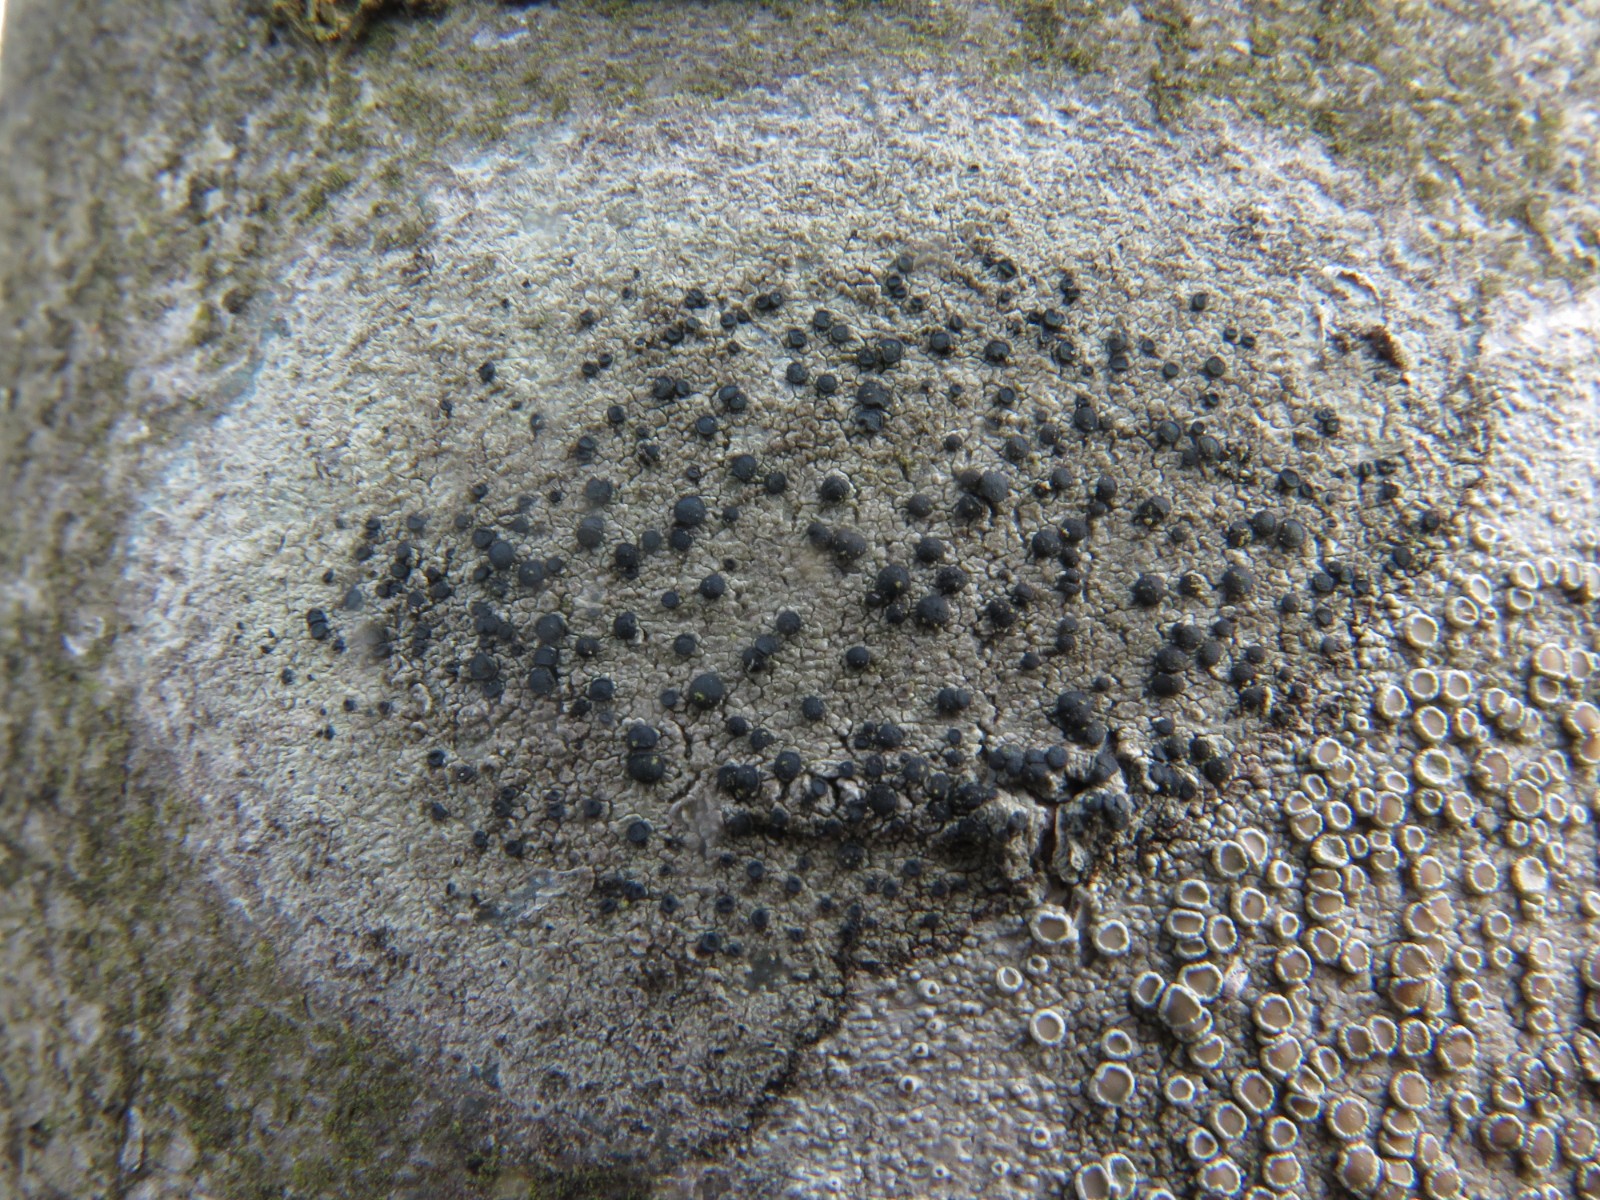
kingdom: Fungi
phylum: Ascomycota
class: Lecanoromycetes
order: Lecanorales
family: Lecanoraceae
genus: Lecidella
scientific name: Lecidella elaeochroma
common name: grågrøn skivelav
